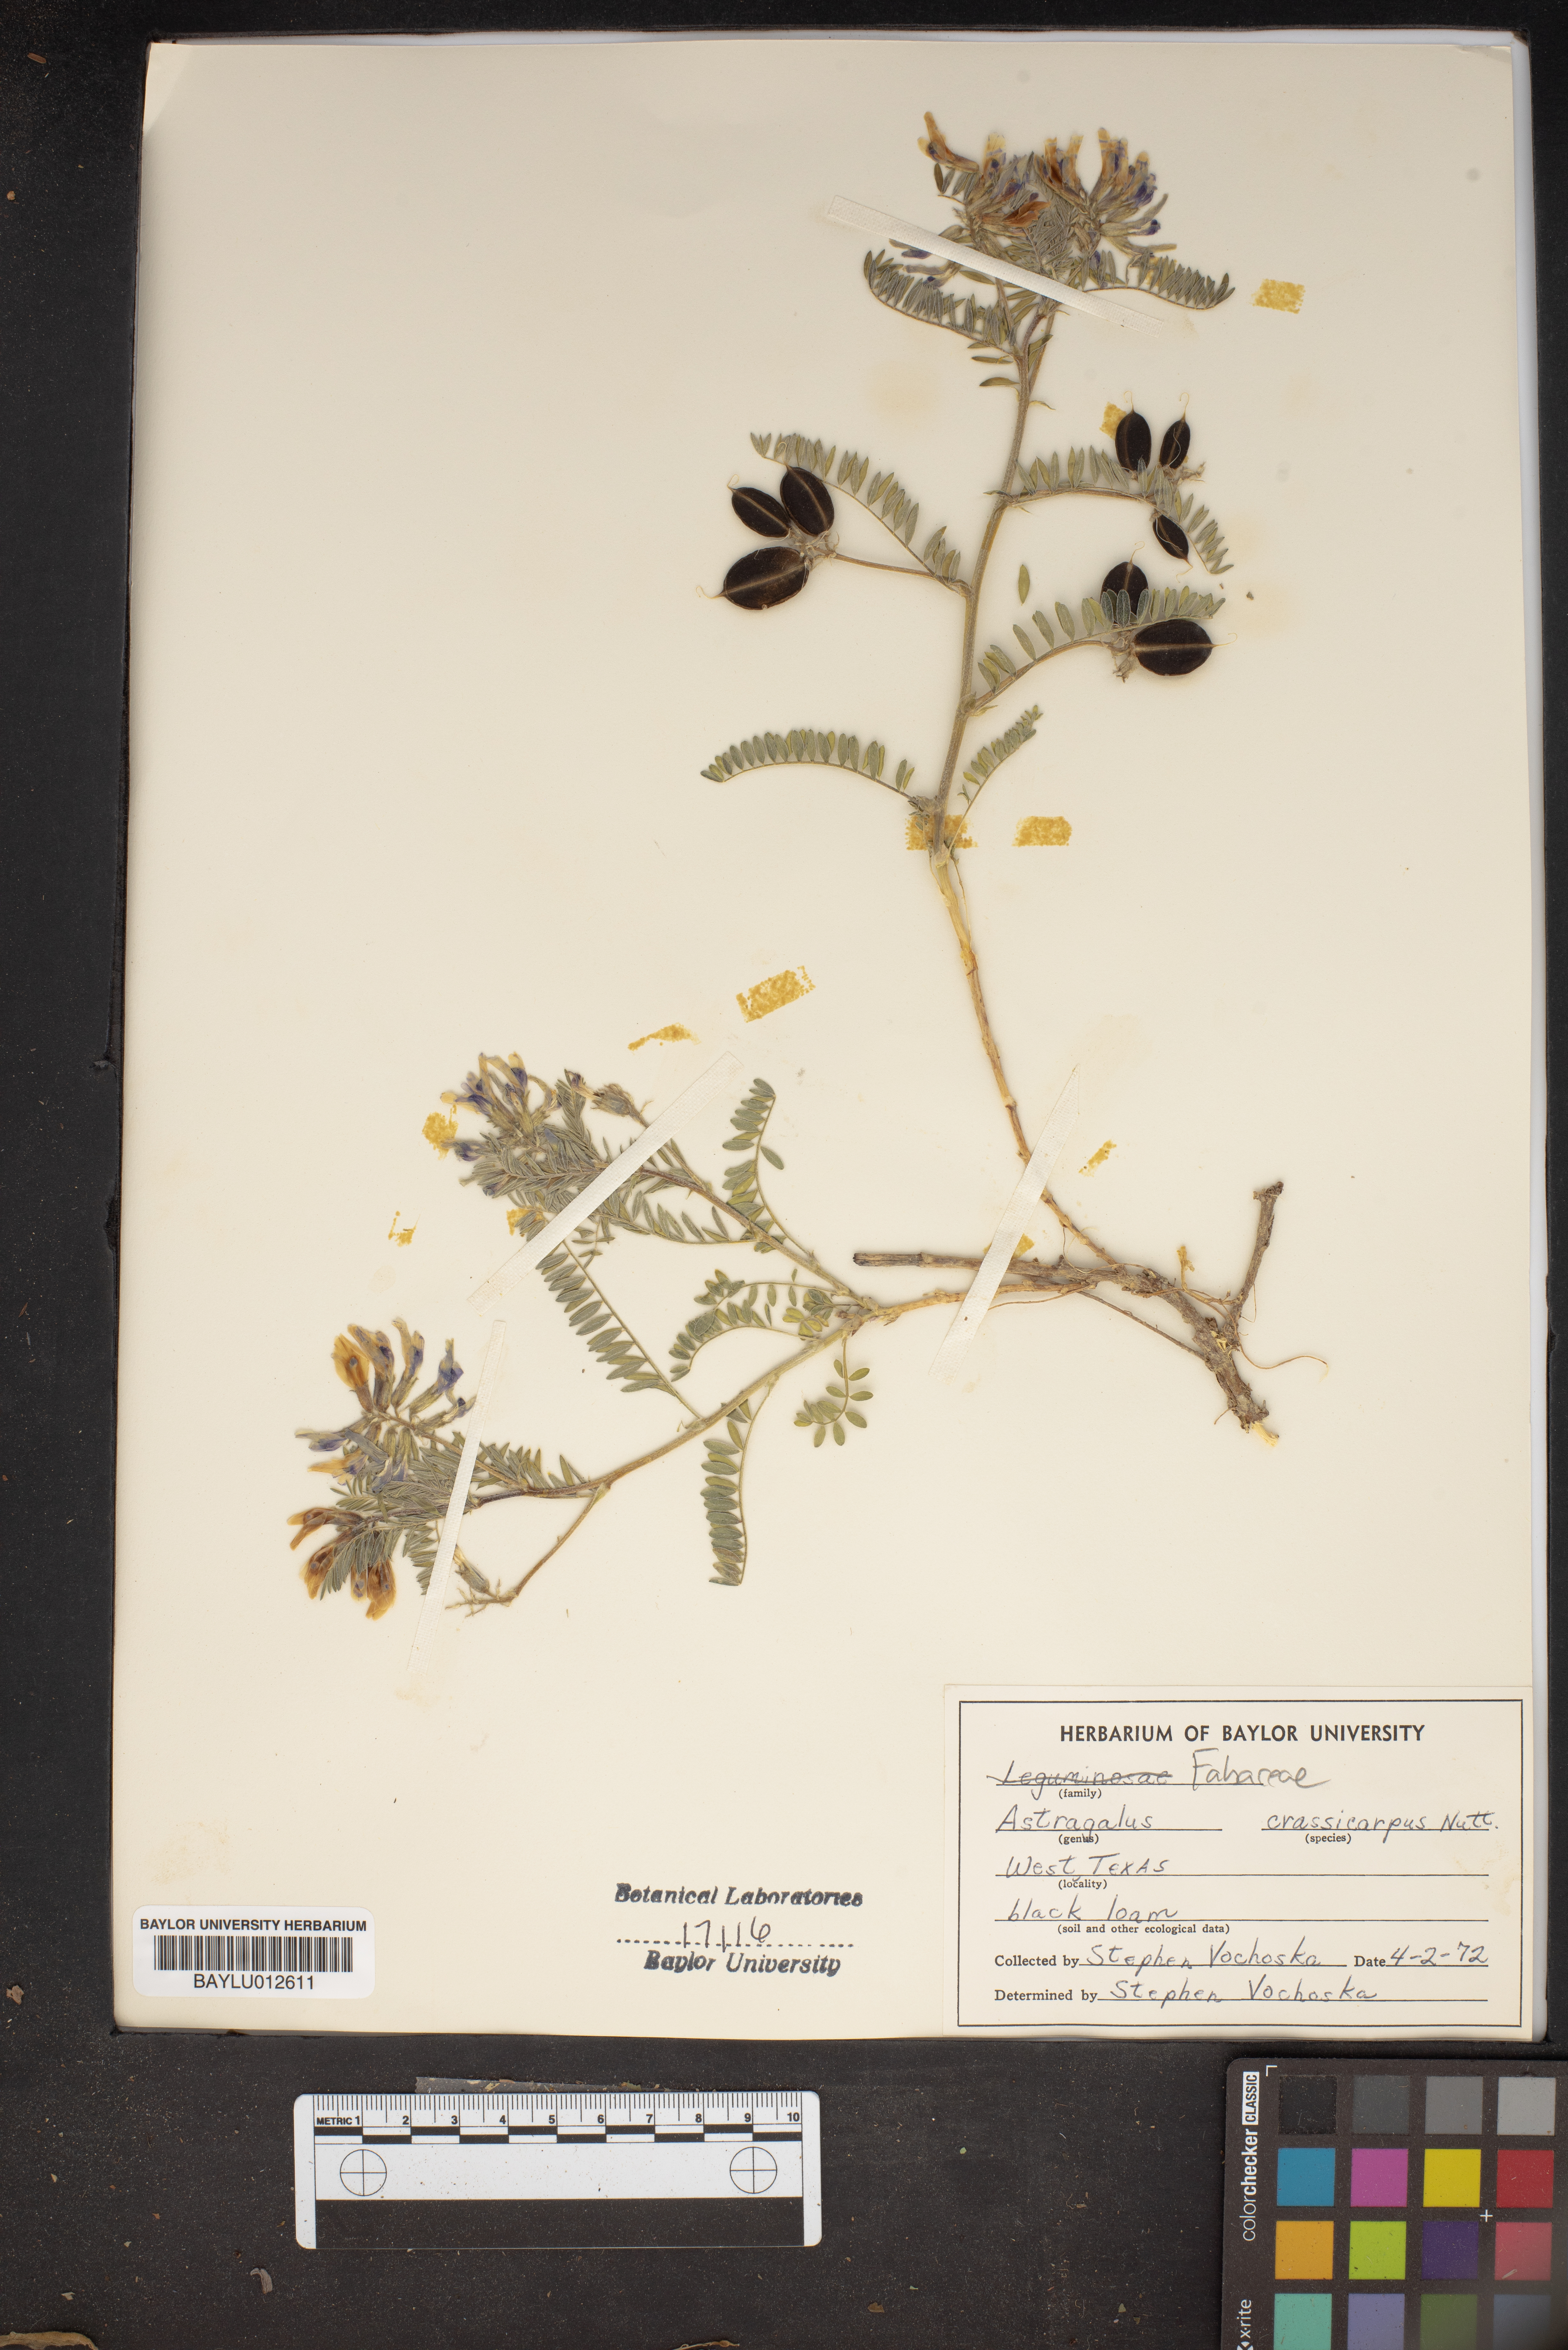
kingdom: Plantae
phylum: Tracheophyta
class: Magnoliopsida
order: Fabales
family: Fabaceae
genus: Astragalus
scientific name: Astragalus crassicarpus
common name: Ground-plum milk-vetch
